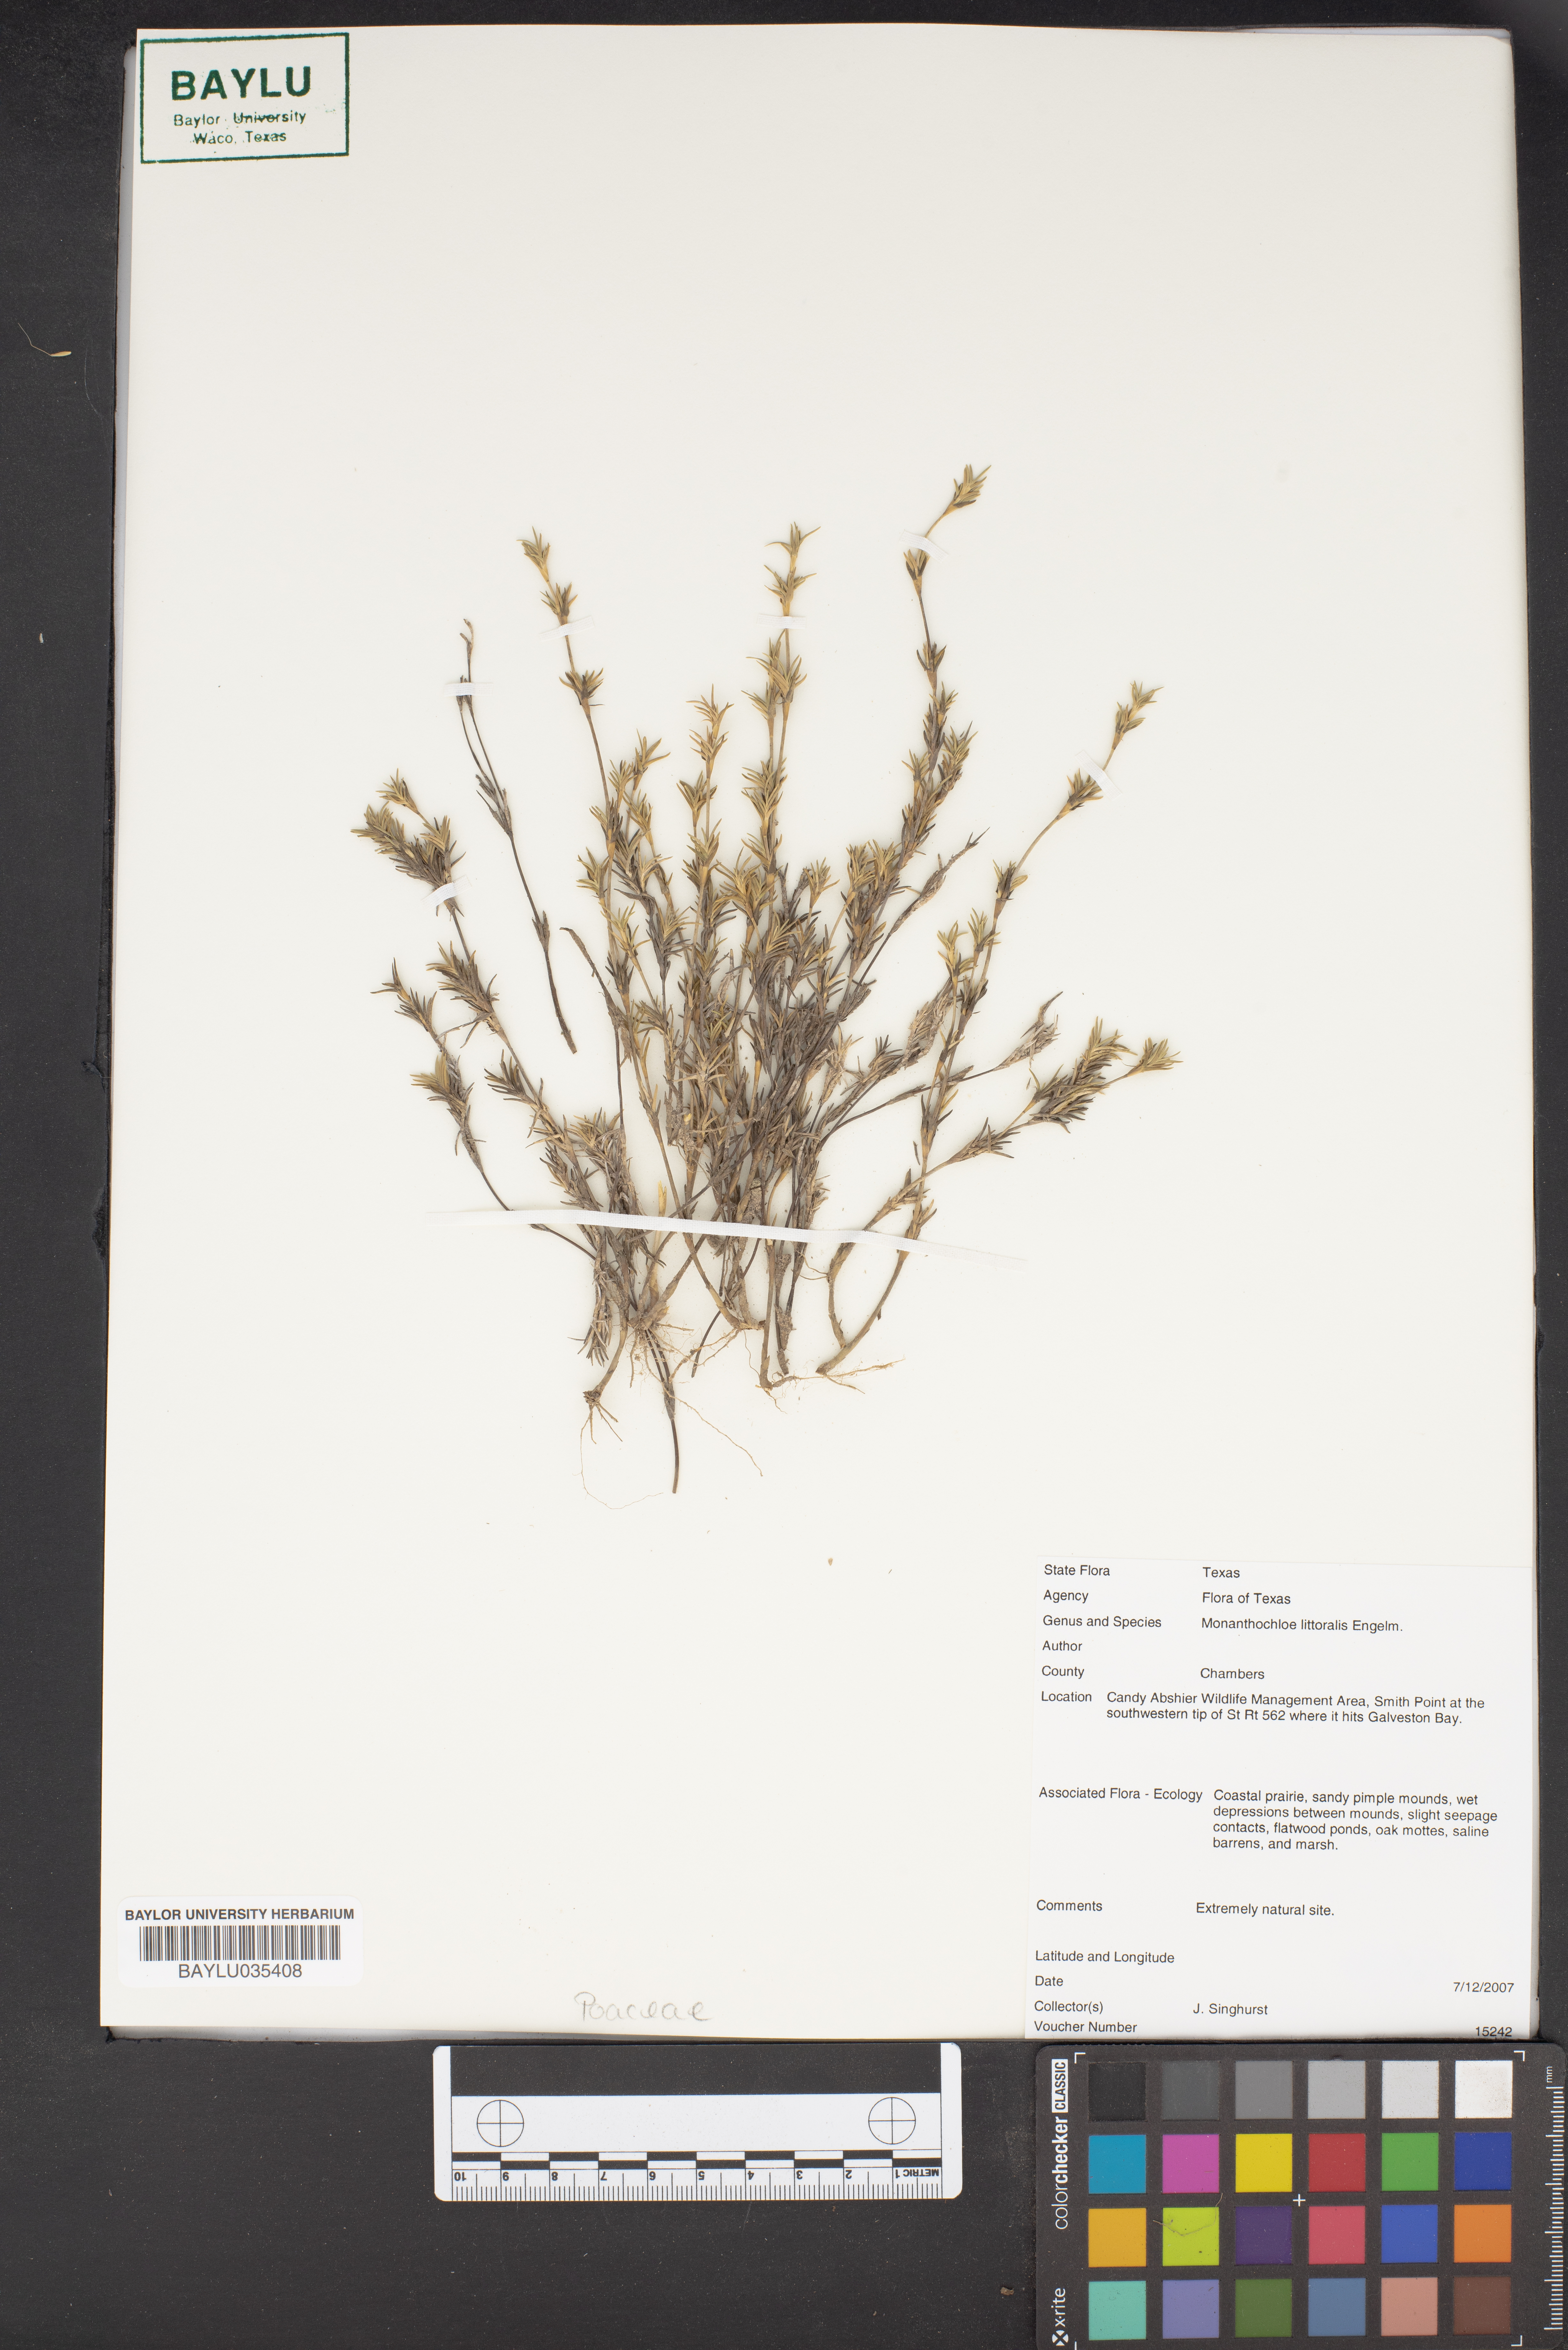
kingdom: Plantae
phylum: Tracheophyta
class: Liliopsida
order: Poales
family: Poaceae
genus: Distichlis
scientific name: Distichlis littoralis
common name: Shore grass
